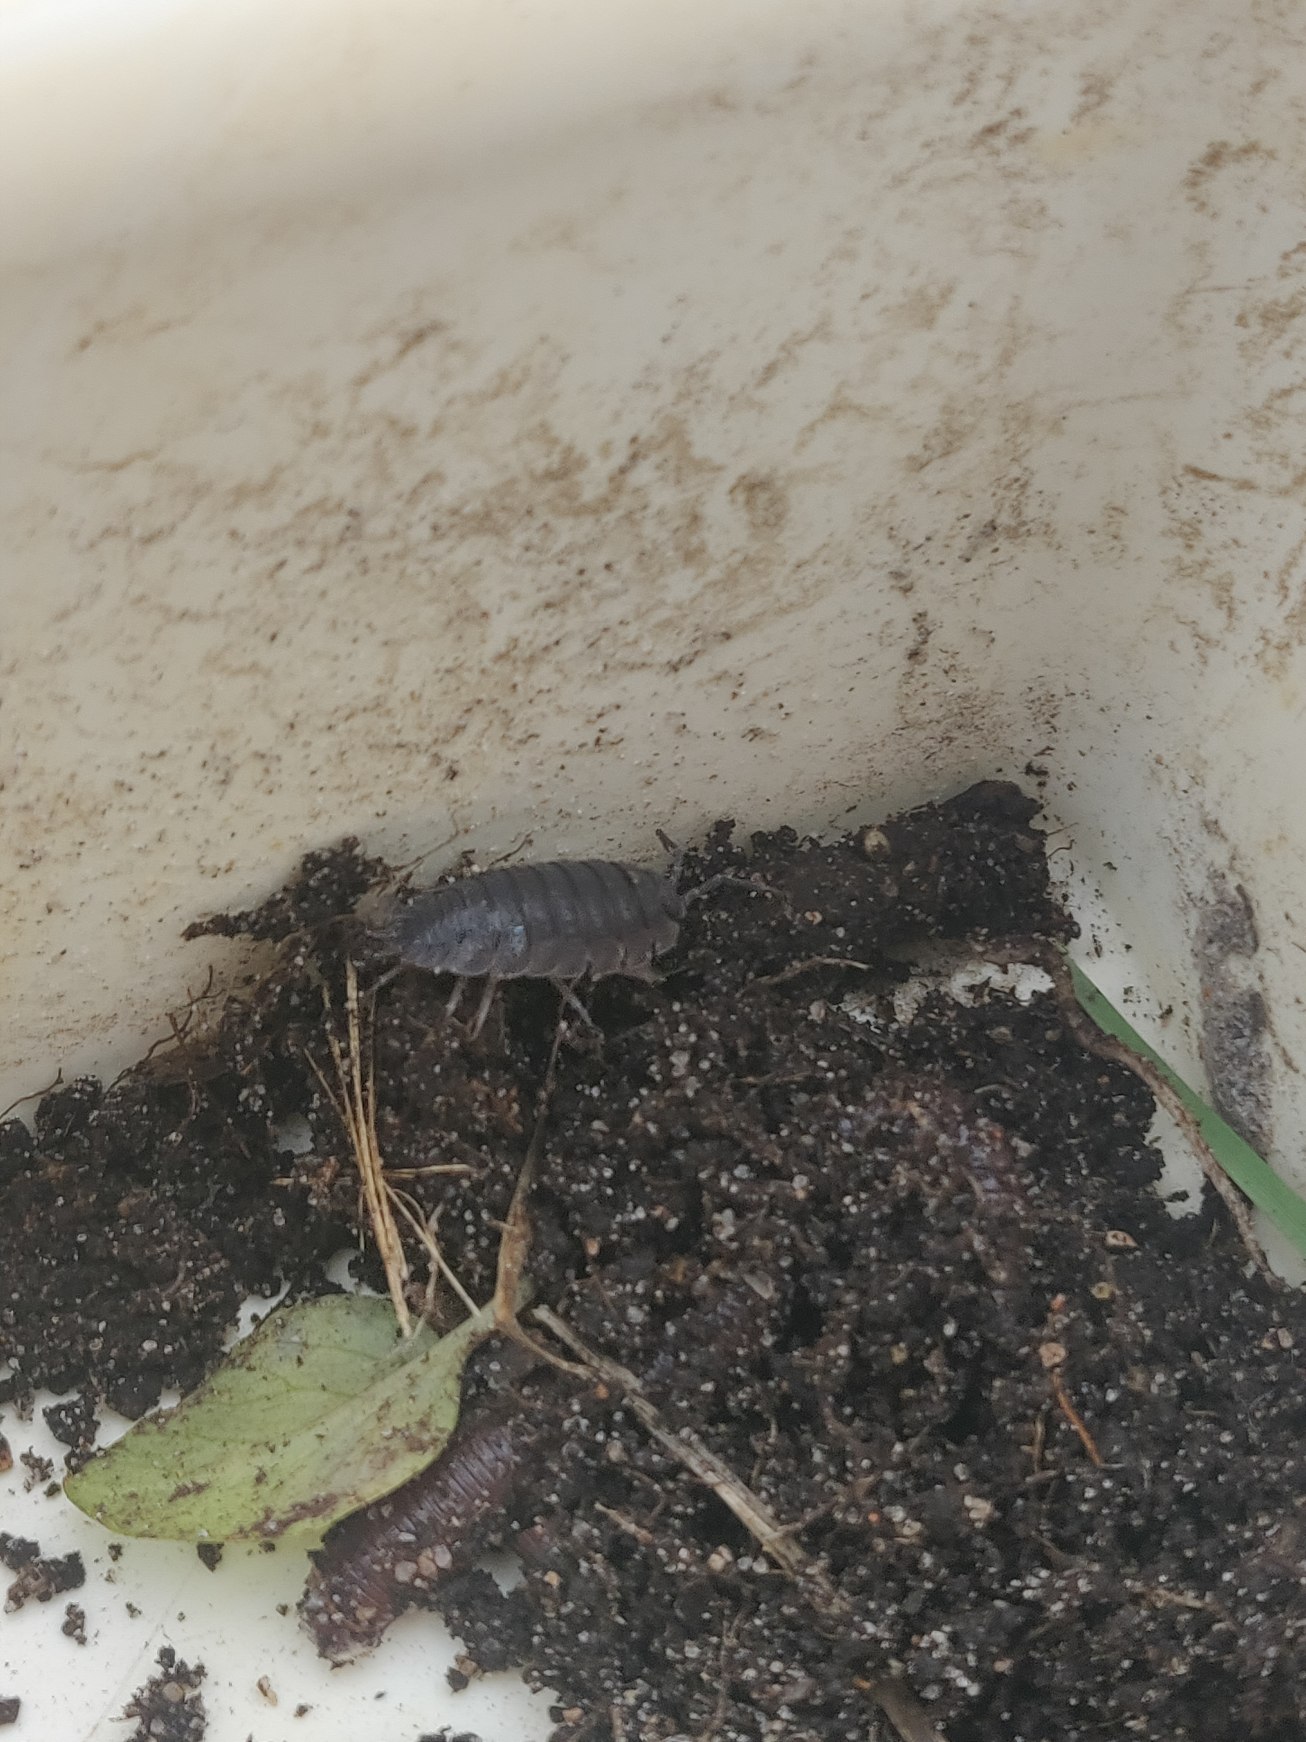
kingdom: Animalia
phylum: Arthropoda
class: Malacostraca
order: Isopoda
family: Porcellionidae
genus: Porcellio
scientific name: Porcellio scaber
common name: Grå bænkebider
